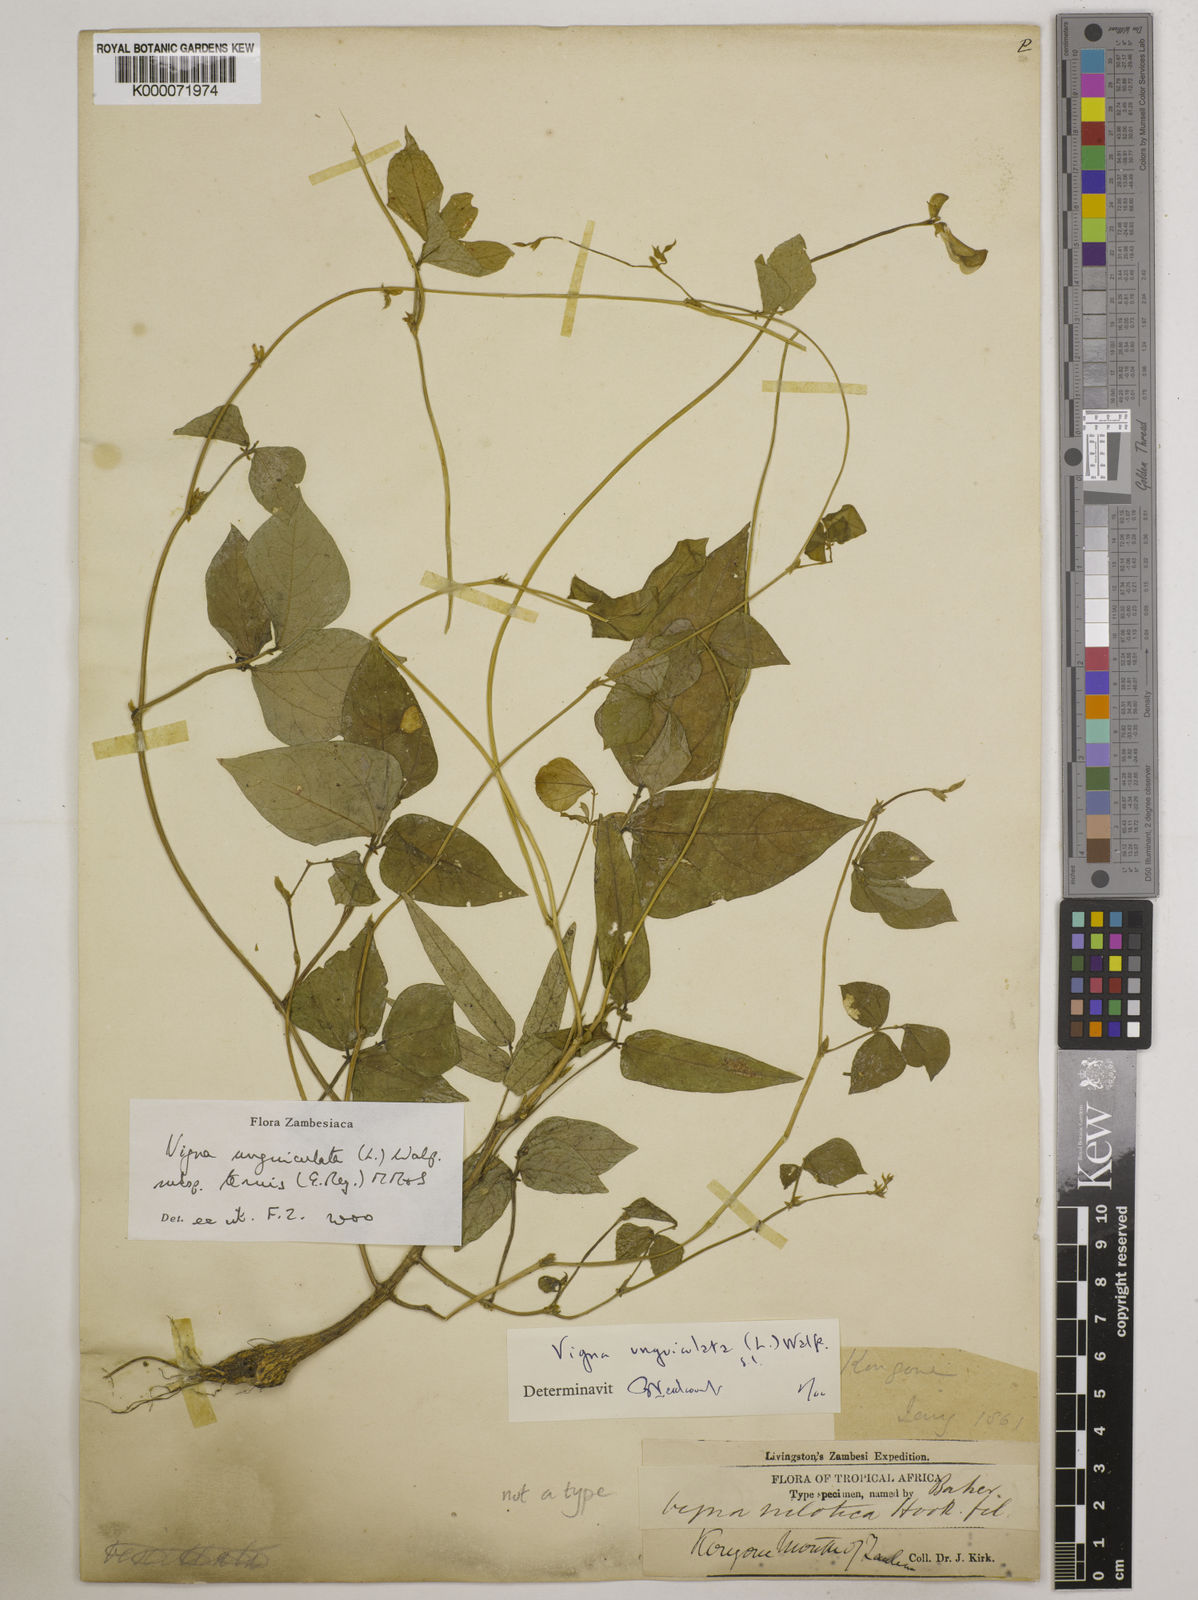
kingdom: Plantae
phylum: Tracheophyta
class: Magnoliopsida
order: Fabales
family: Fabaceae
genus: Vigna
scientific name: Vigna unguiculata
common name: Cowpea
